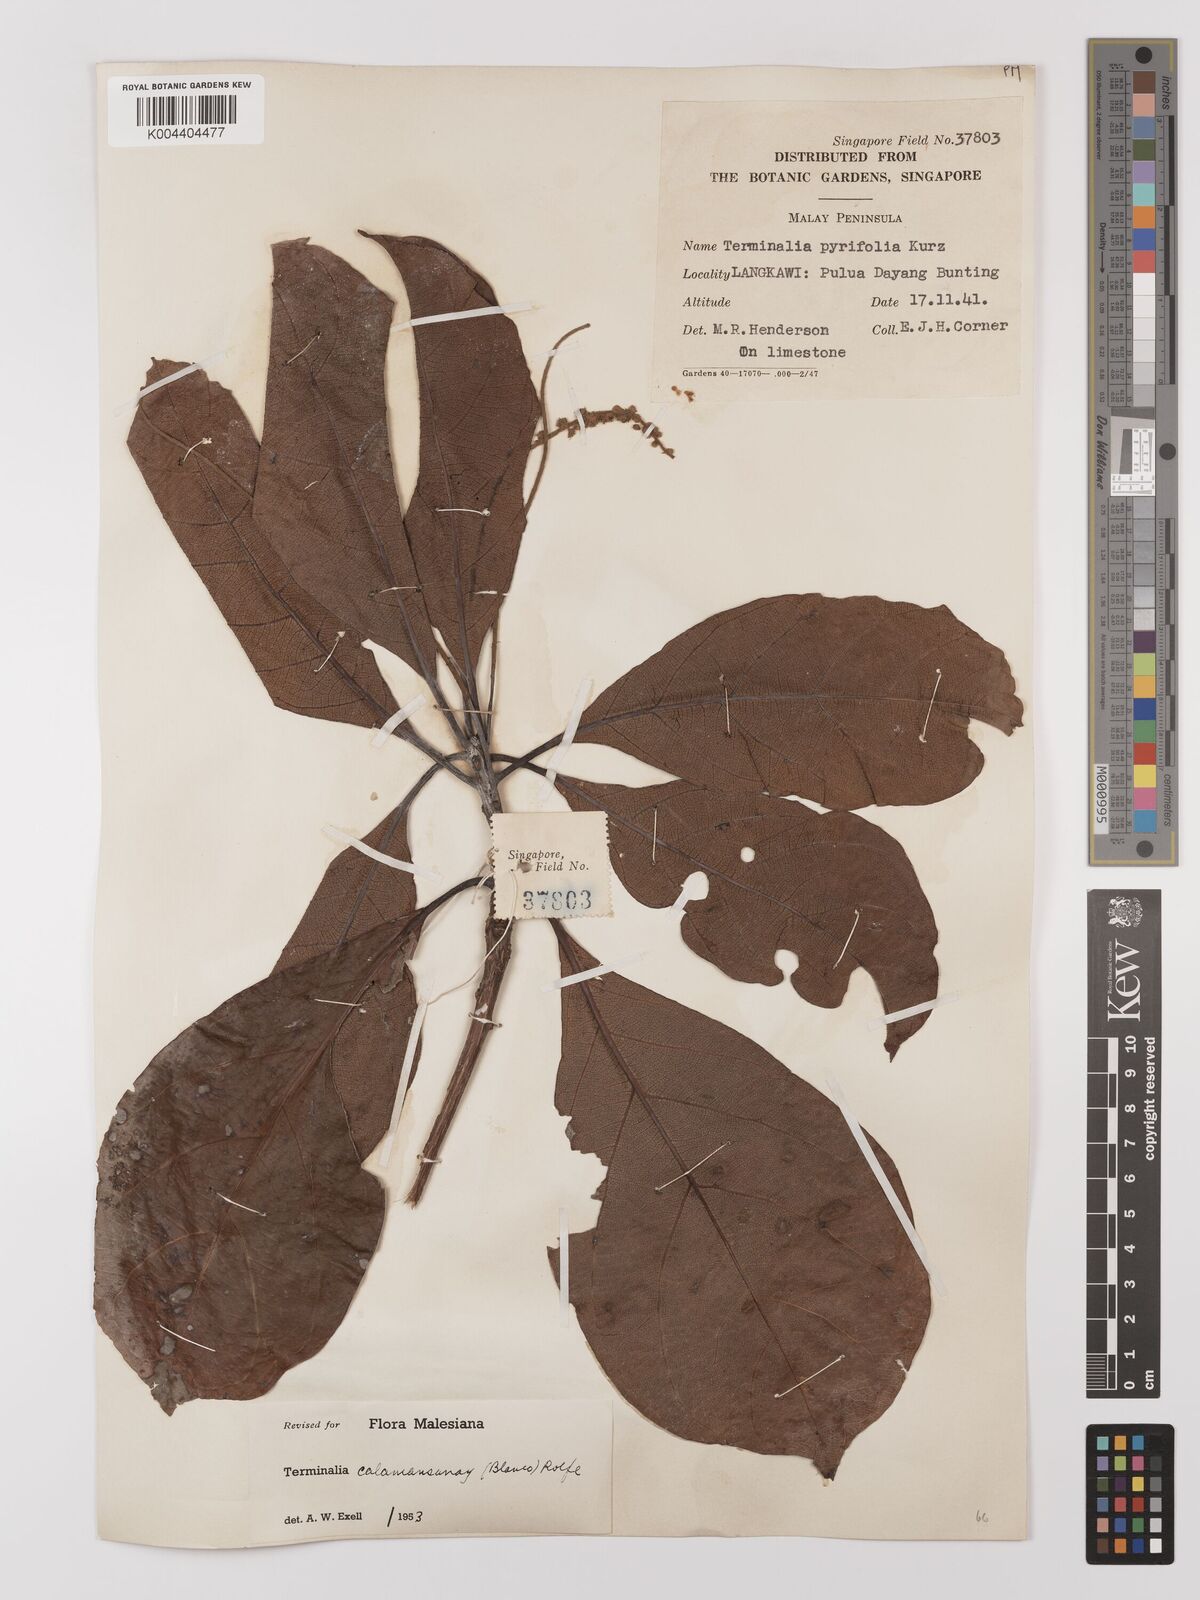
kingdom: Plantae
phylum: Tracheophyta
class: Magnoliopsida
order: Myrtales
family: Combretaceae
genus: Terminalia
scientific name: Terminalia calamansanai
